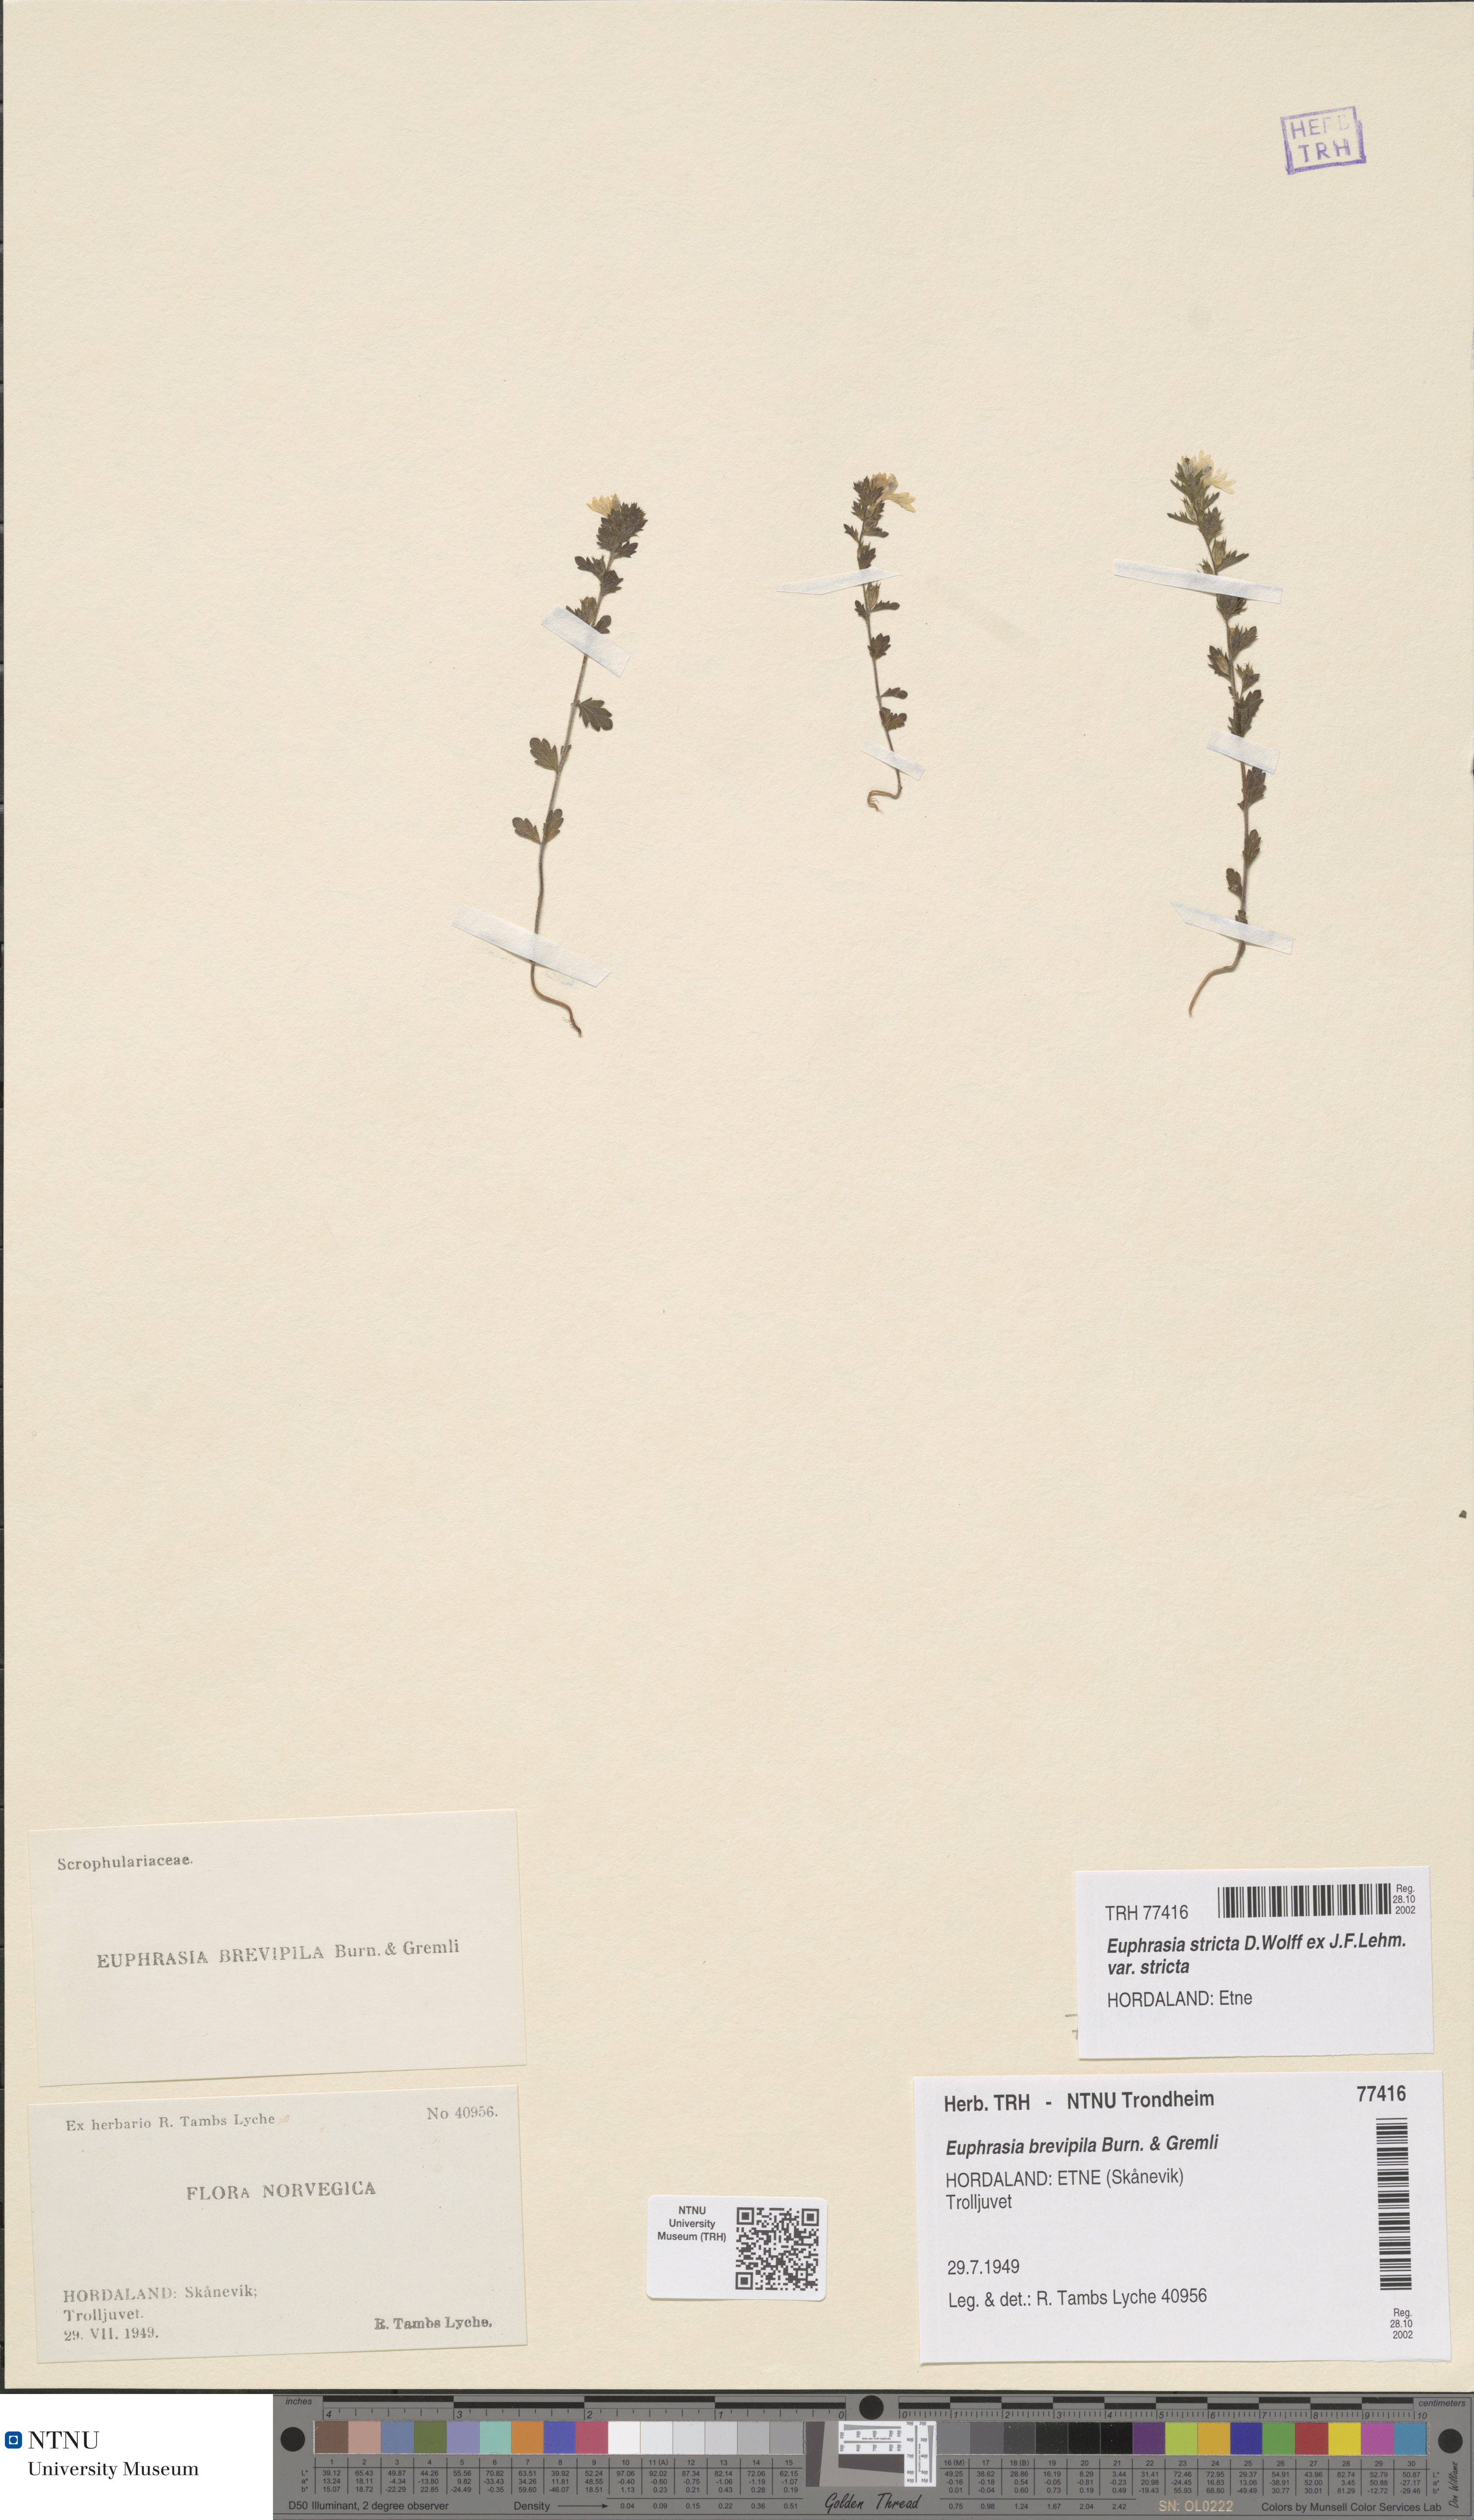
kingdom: Plantae
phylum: Tracheophyta
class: Magnoliopsida
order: Lamiales
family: Orobanchaceae
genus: Euphrasia
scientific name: Euphrasia vernalis
